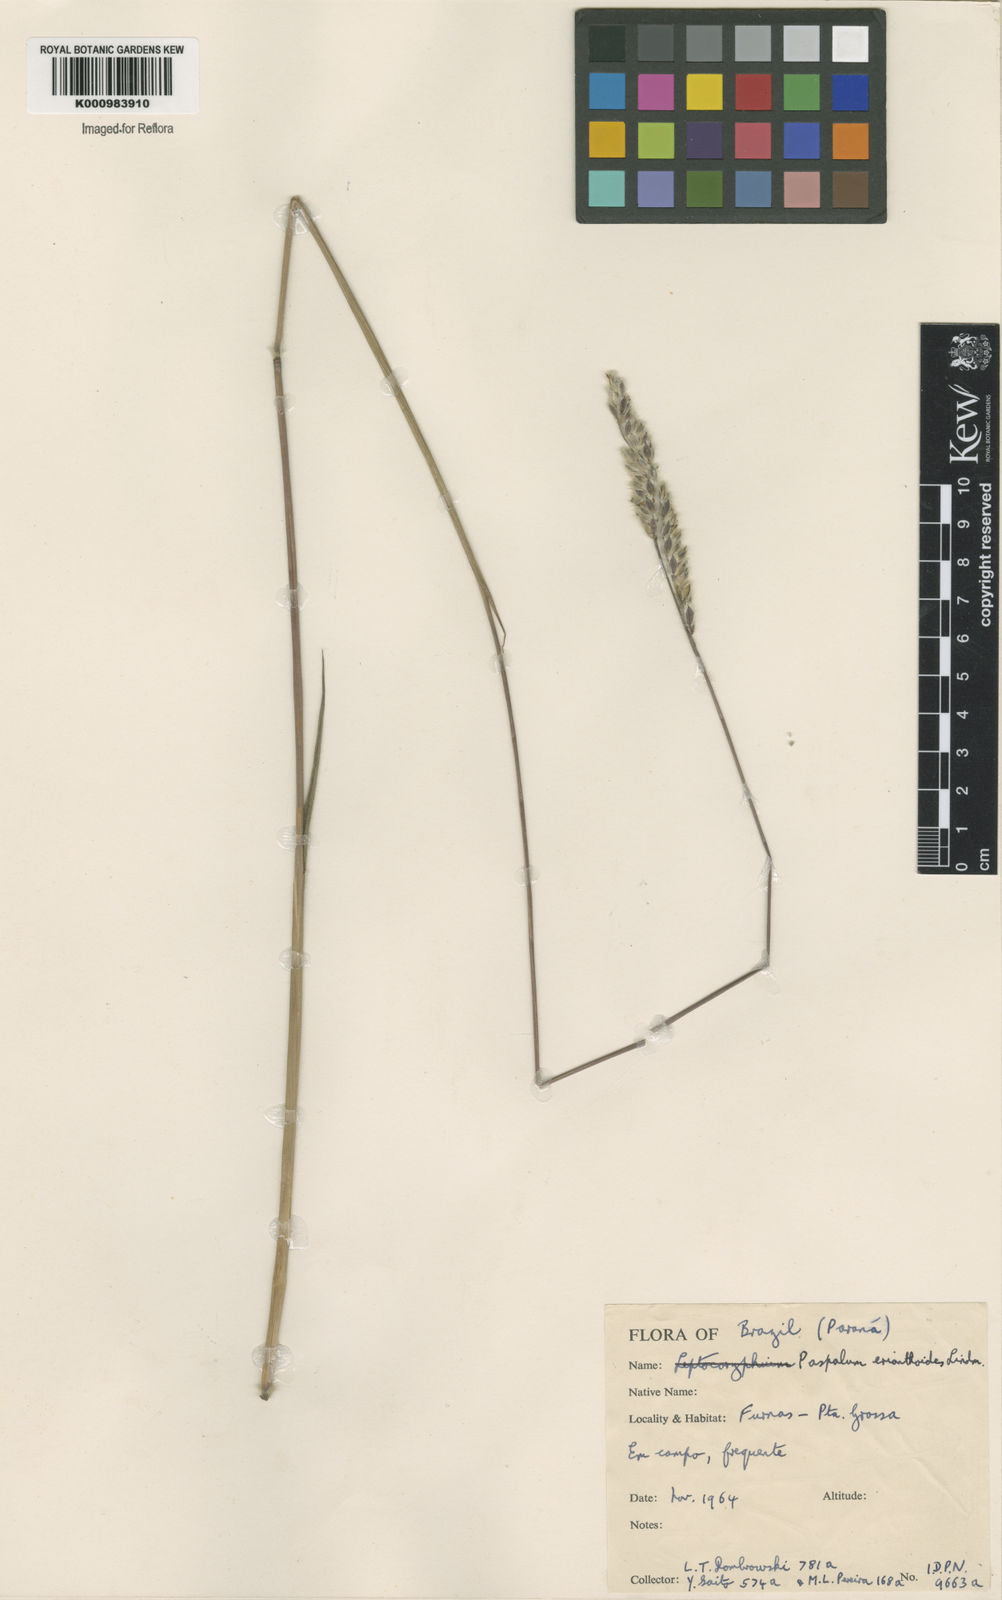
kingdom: Plantae
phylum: Tracheophyta
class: Liliopsida
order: Poales
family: Poaceae
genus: Paspalum
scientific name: Paspalum erianthum
